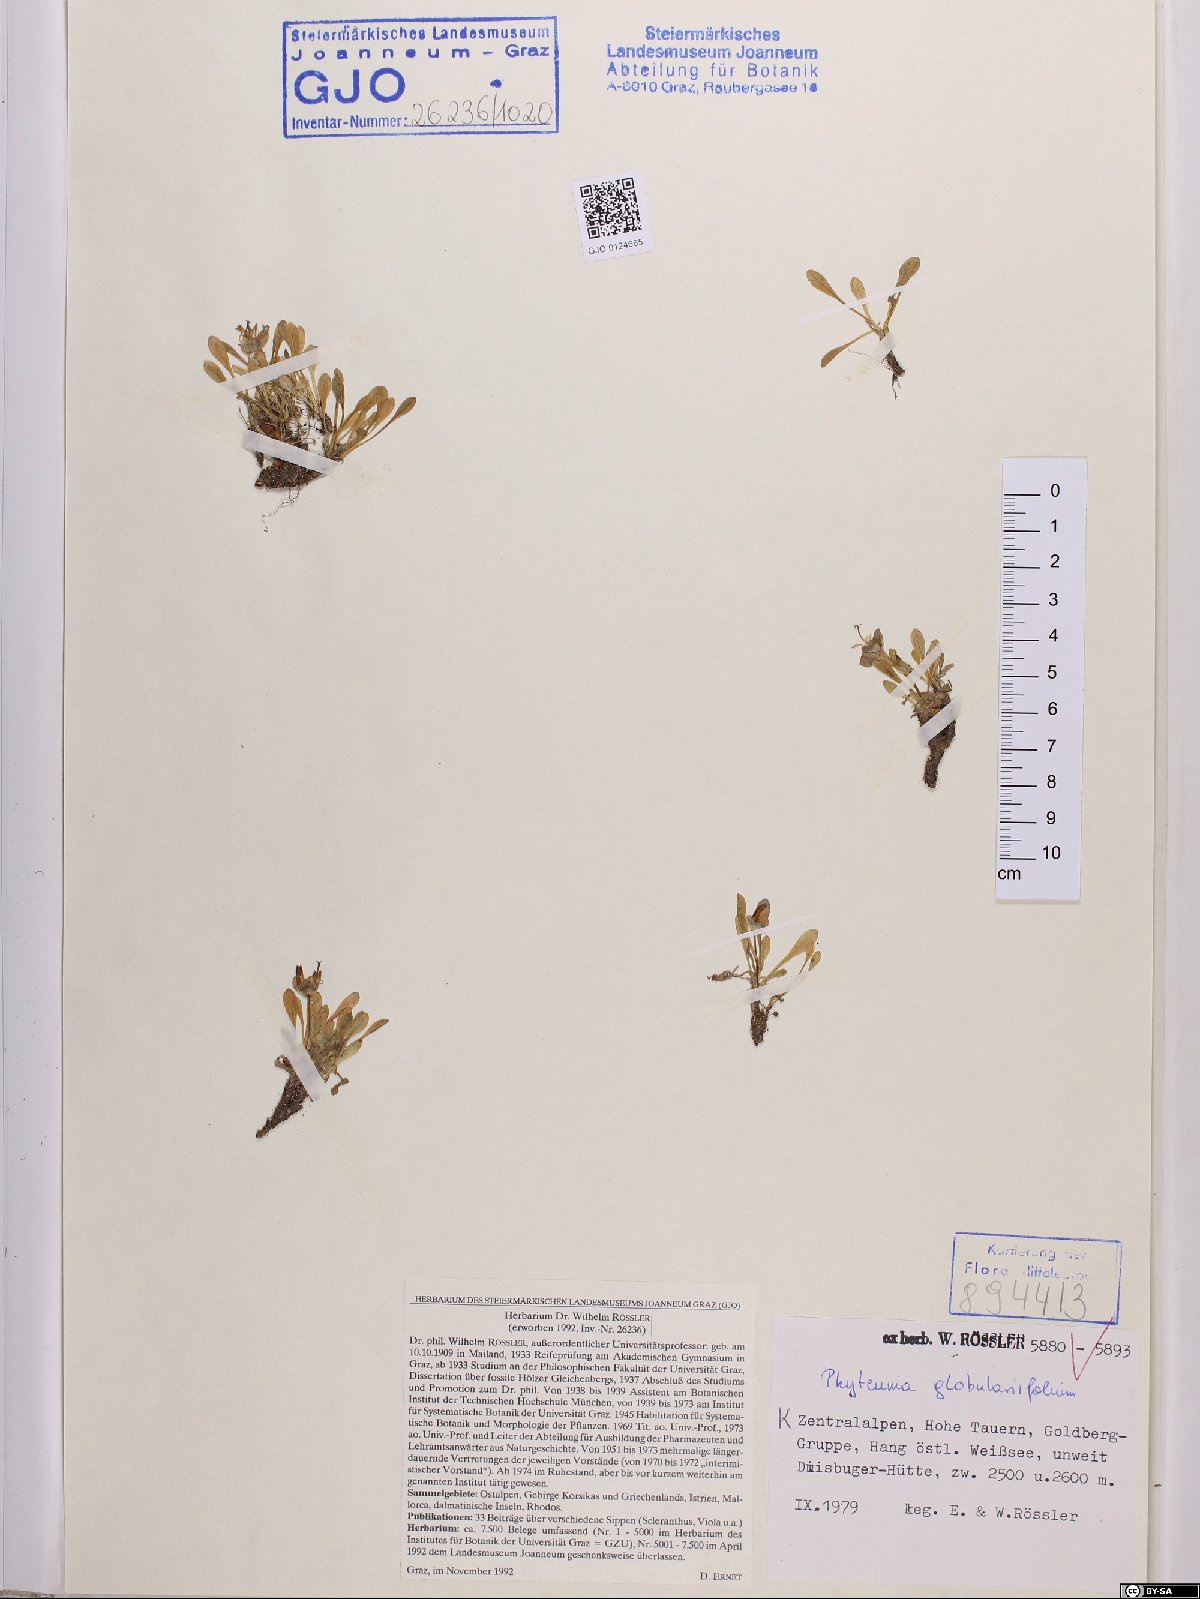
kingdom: Plantae
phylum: Tracheophyta
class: Magnoliopsida
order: Asterales
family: Campanulaceae
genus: Phyteuma
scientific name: Phyteuma globulariifolium
